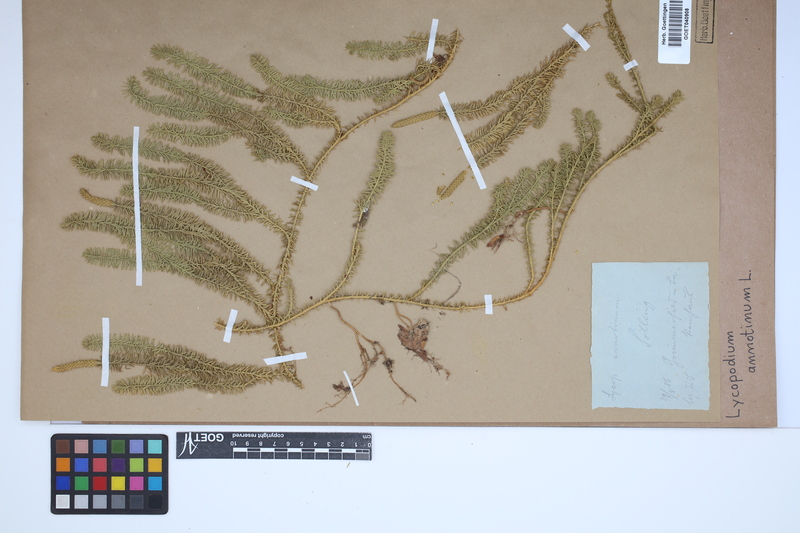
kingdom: Plantae
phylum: Tracheophyta
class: Lycopodiopsida
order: Lycopodiales
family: Lycopodiaceae
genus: Spinulum
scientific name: Spinulum annotinum
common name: Interrupted club-moss
